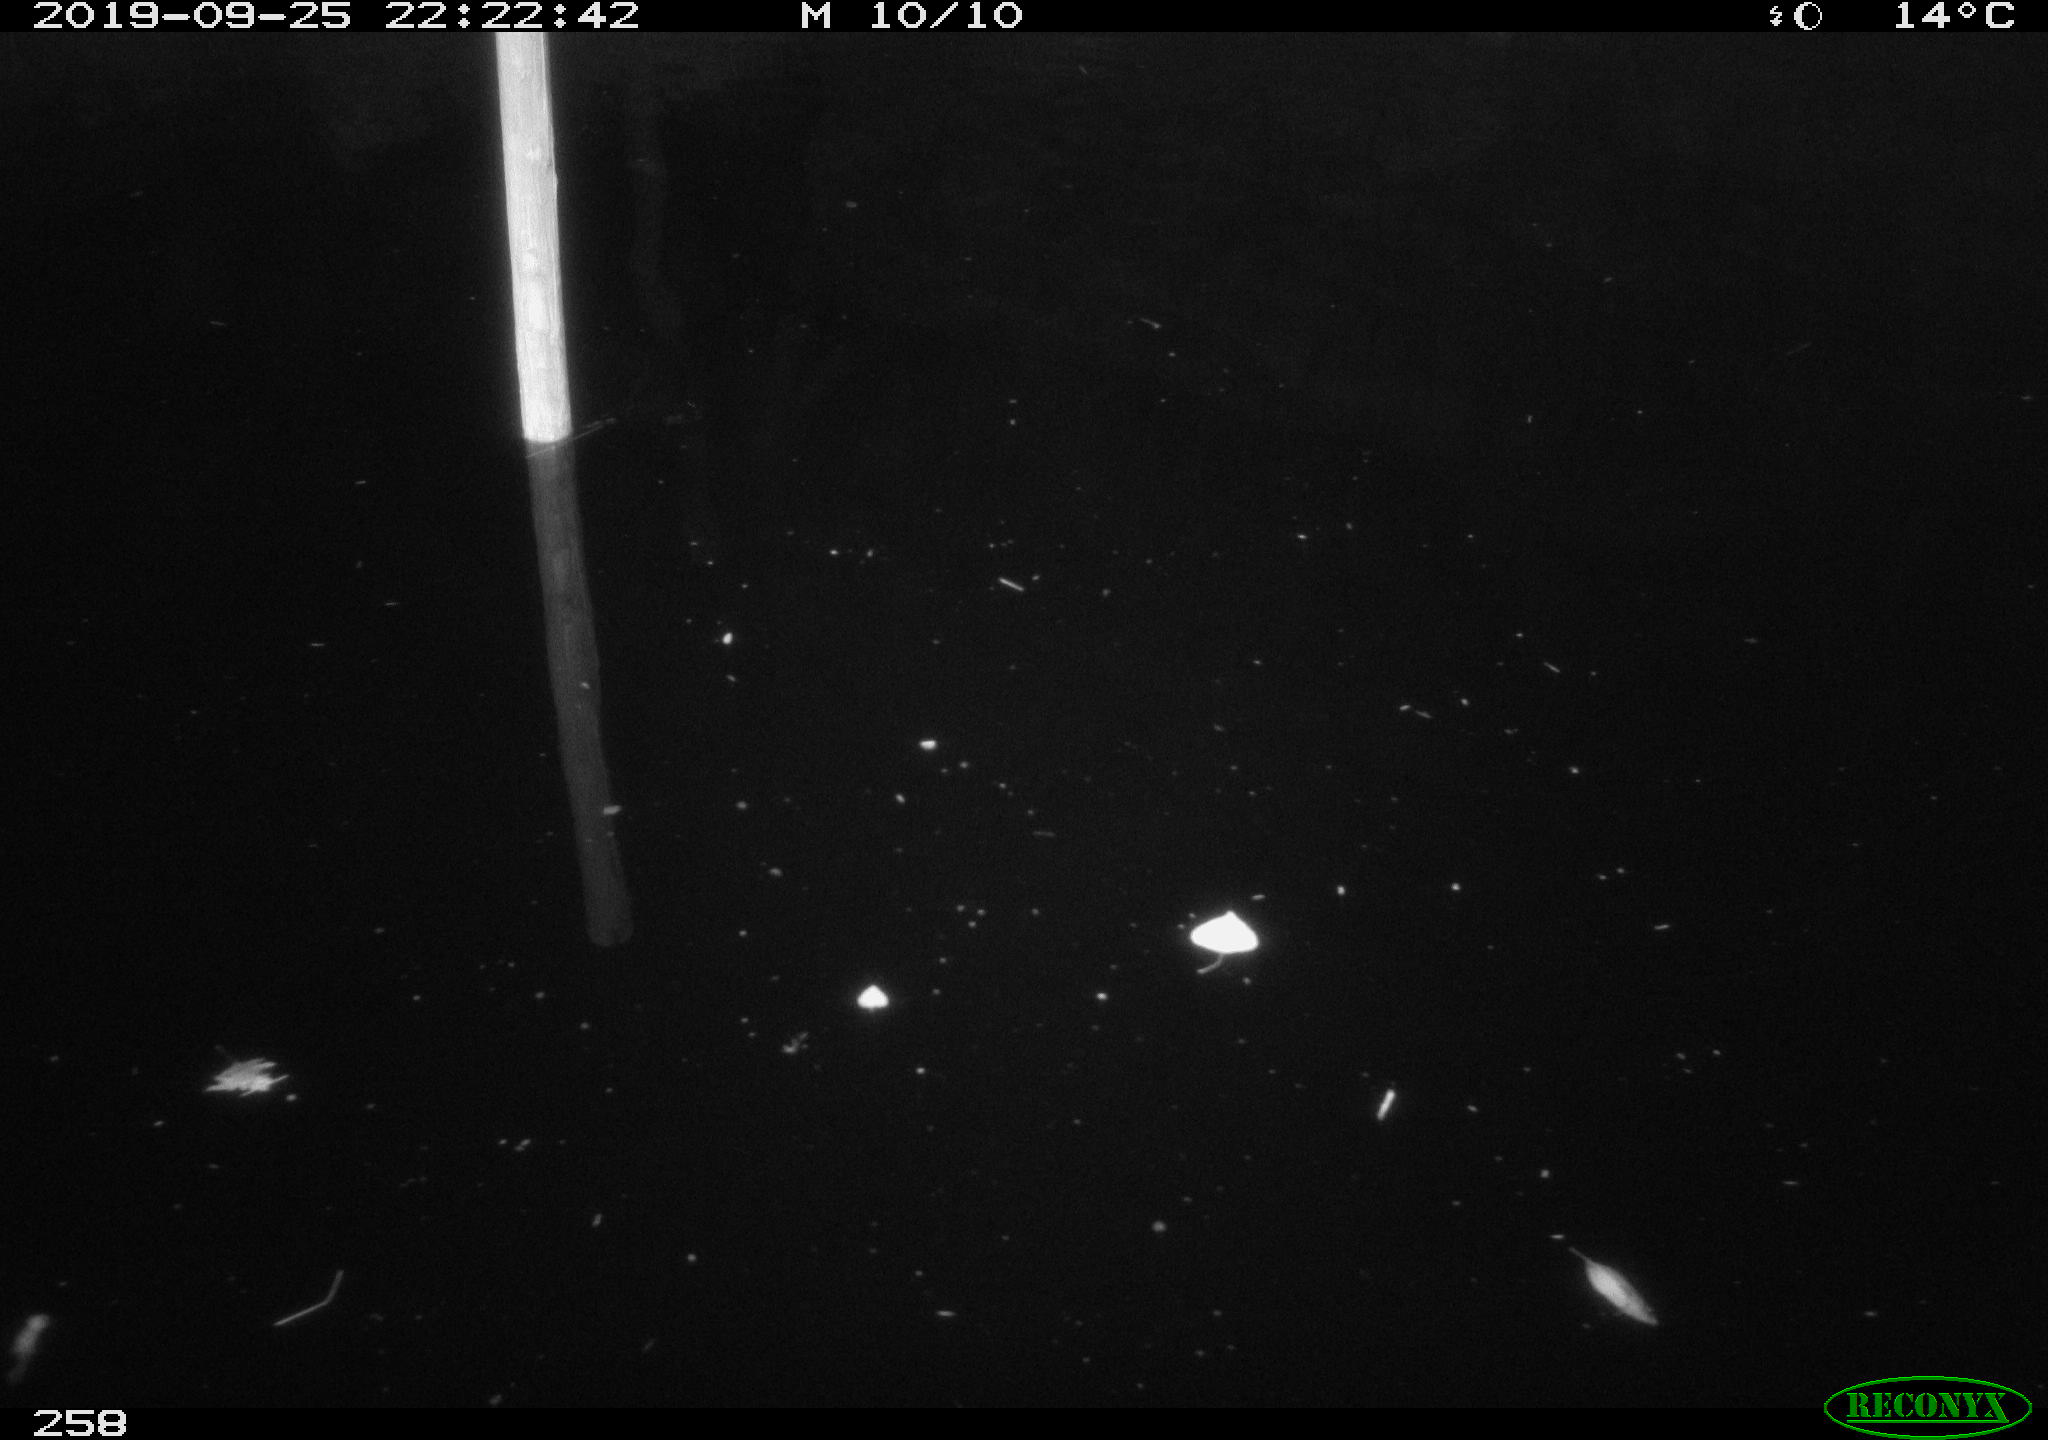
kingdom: Animalia
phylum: Chordata
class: Aves
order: Anseriformes
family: Anatidae
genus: Anas
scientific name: Anas platyrhynchos
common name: Mallard
